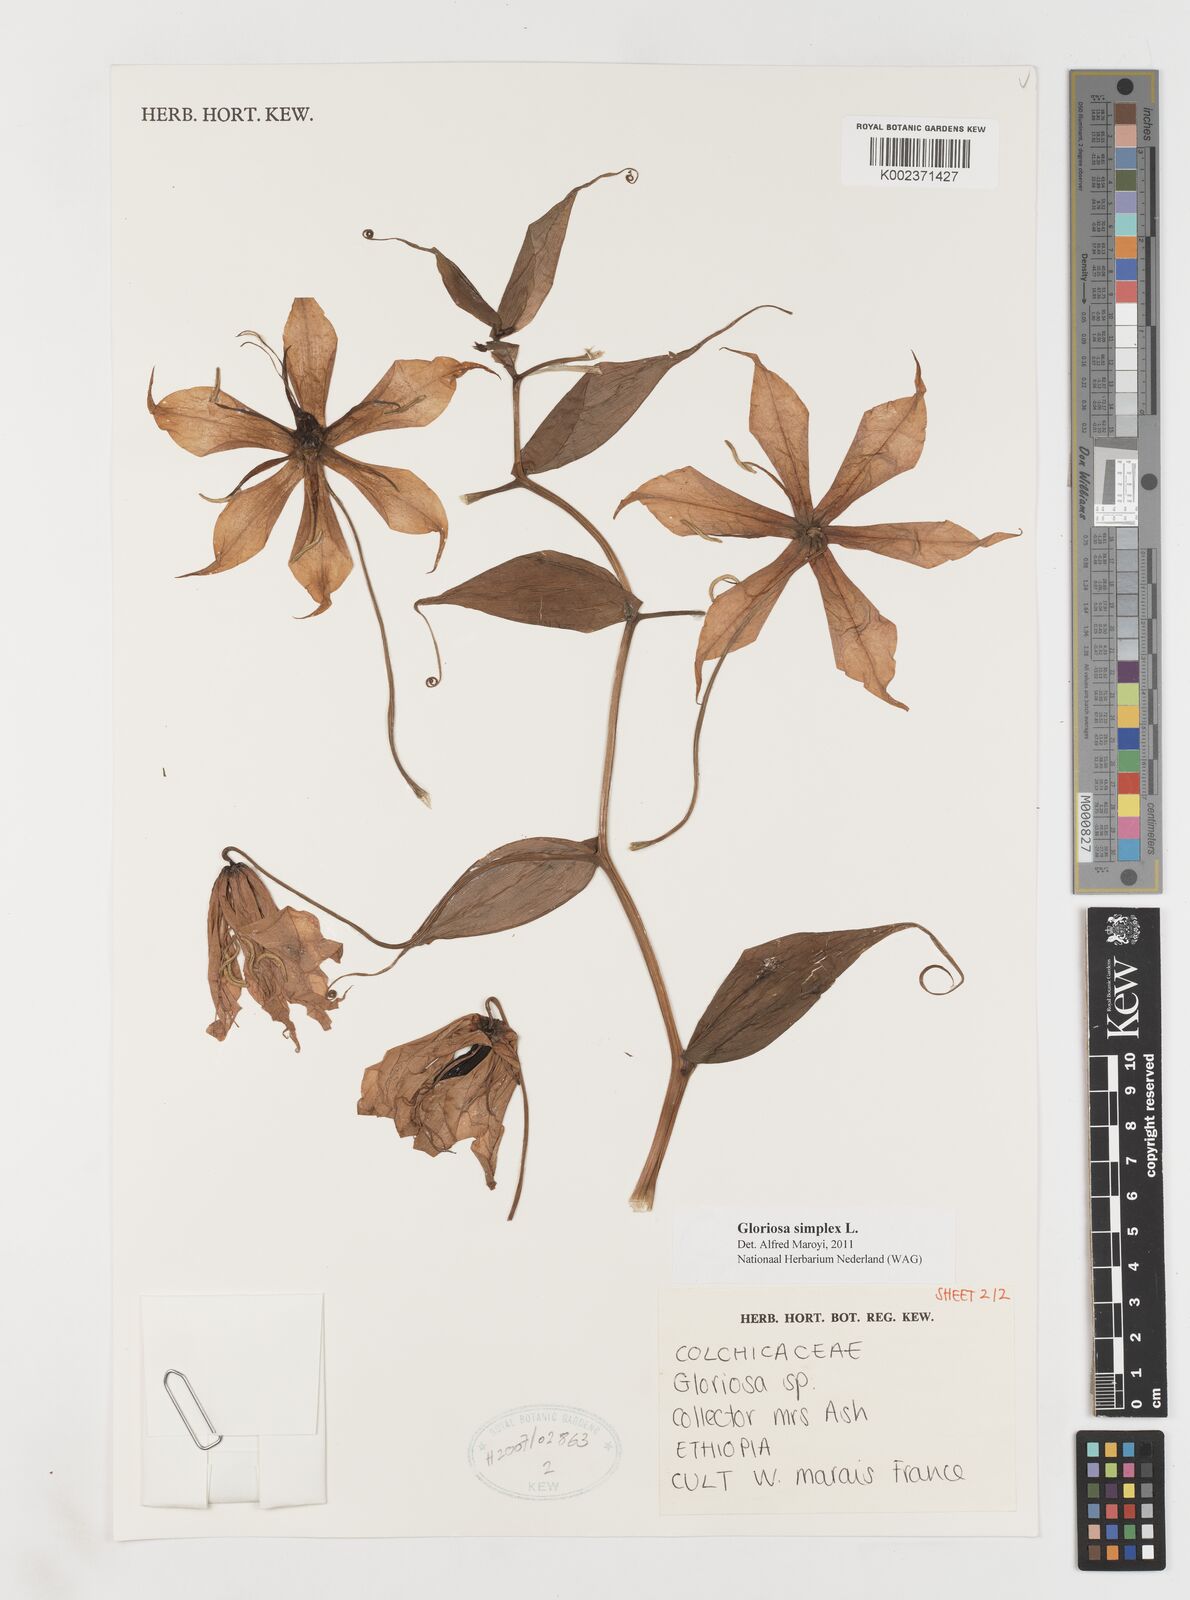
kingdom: Plantae
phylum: Tracheophyta
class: Liliopsida
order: Liliales
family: Colchicaceae
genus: Gloriosa
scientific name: Gloriosa simplex
